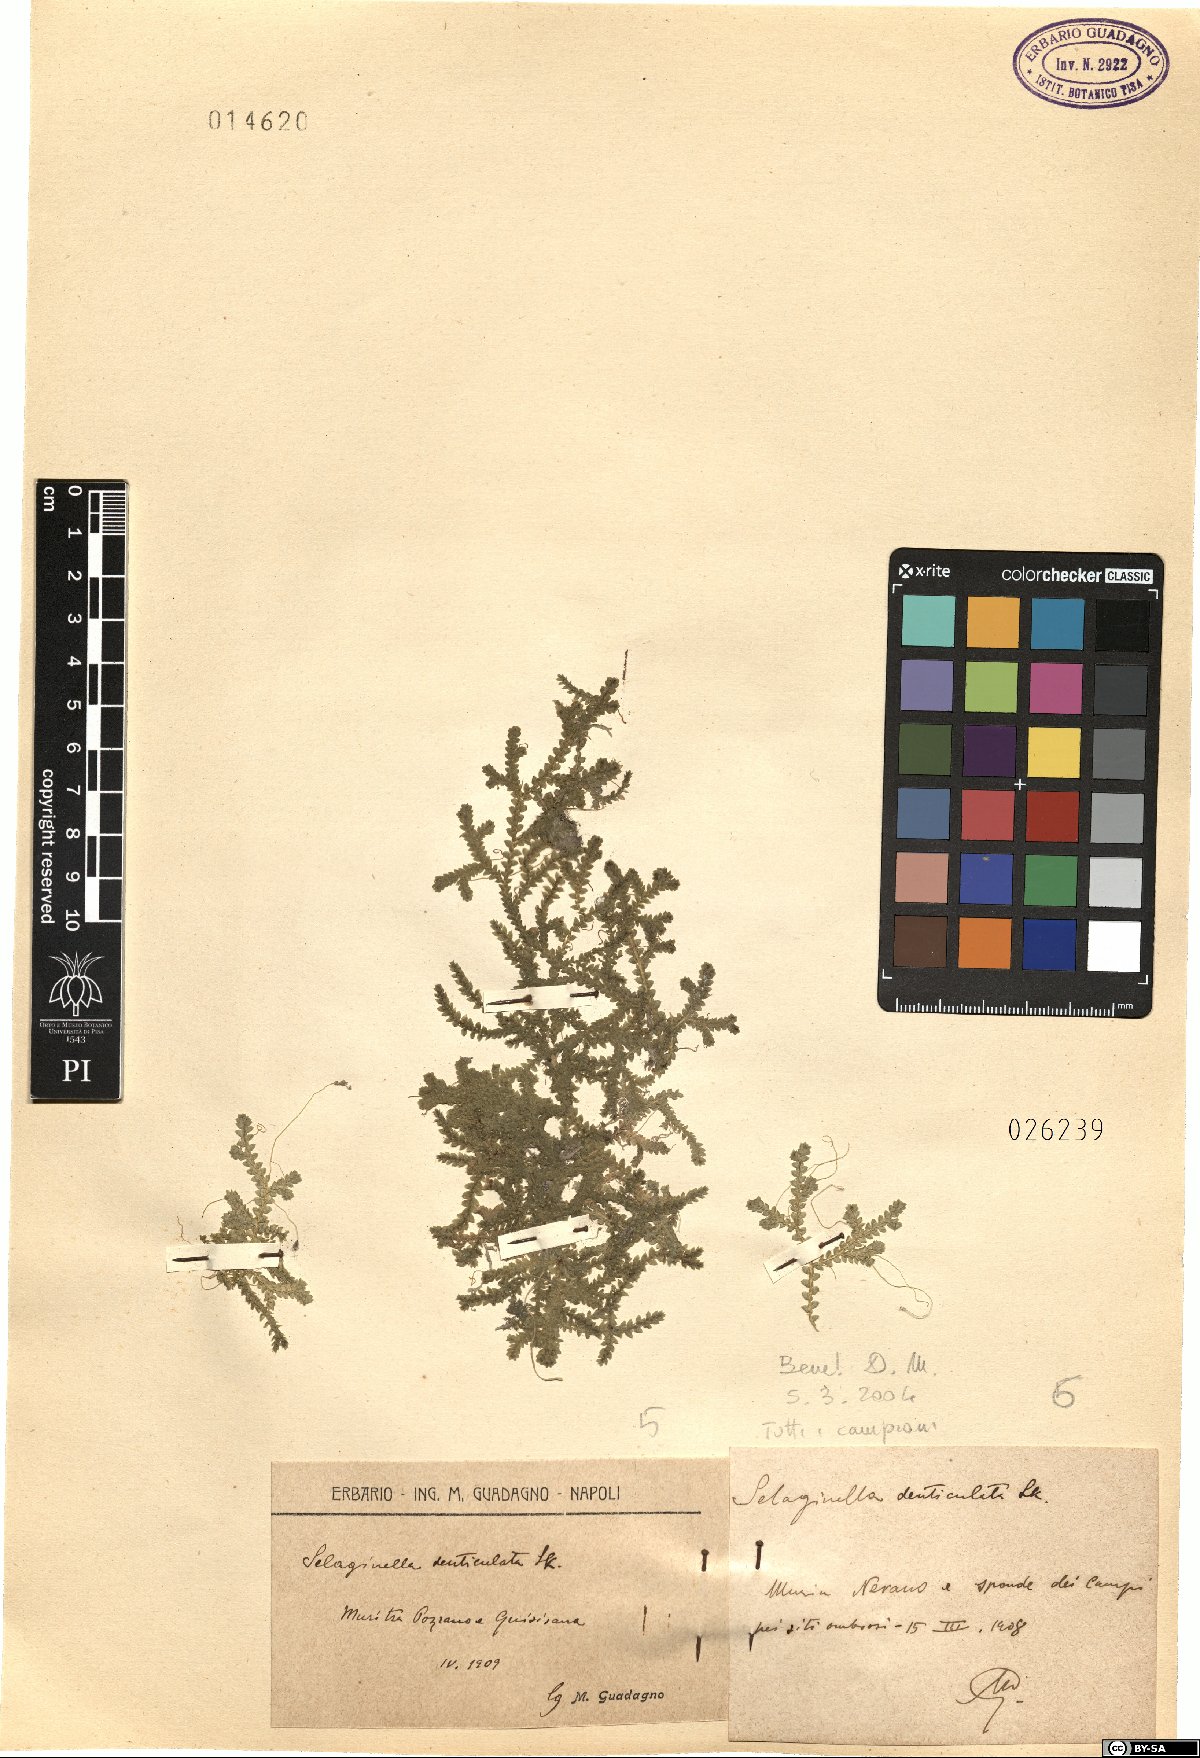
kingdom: Plantae
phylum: Tracheophyta
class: Lycopodiopsida
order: Selaginellales
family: Selaginellaceae
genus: Selaginella
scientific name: Selaginella denticulata
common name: Toothed-leaved clubmoss
